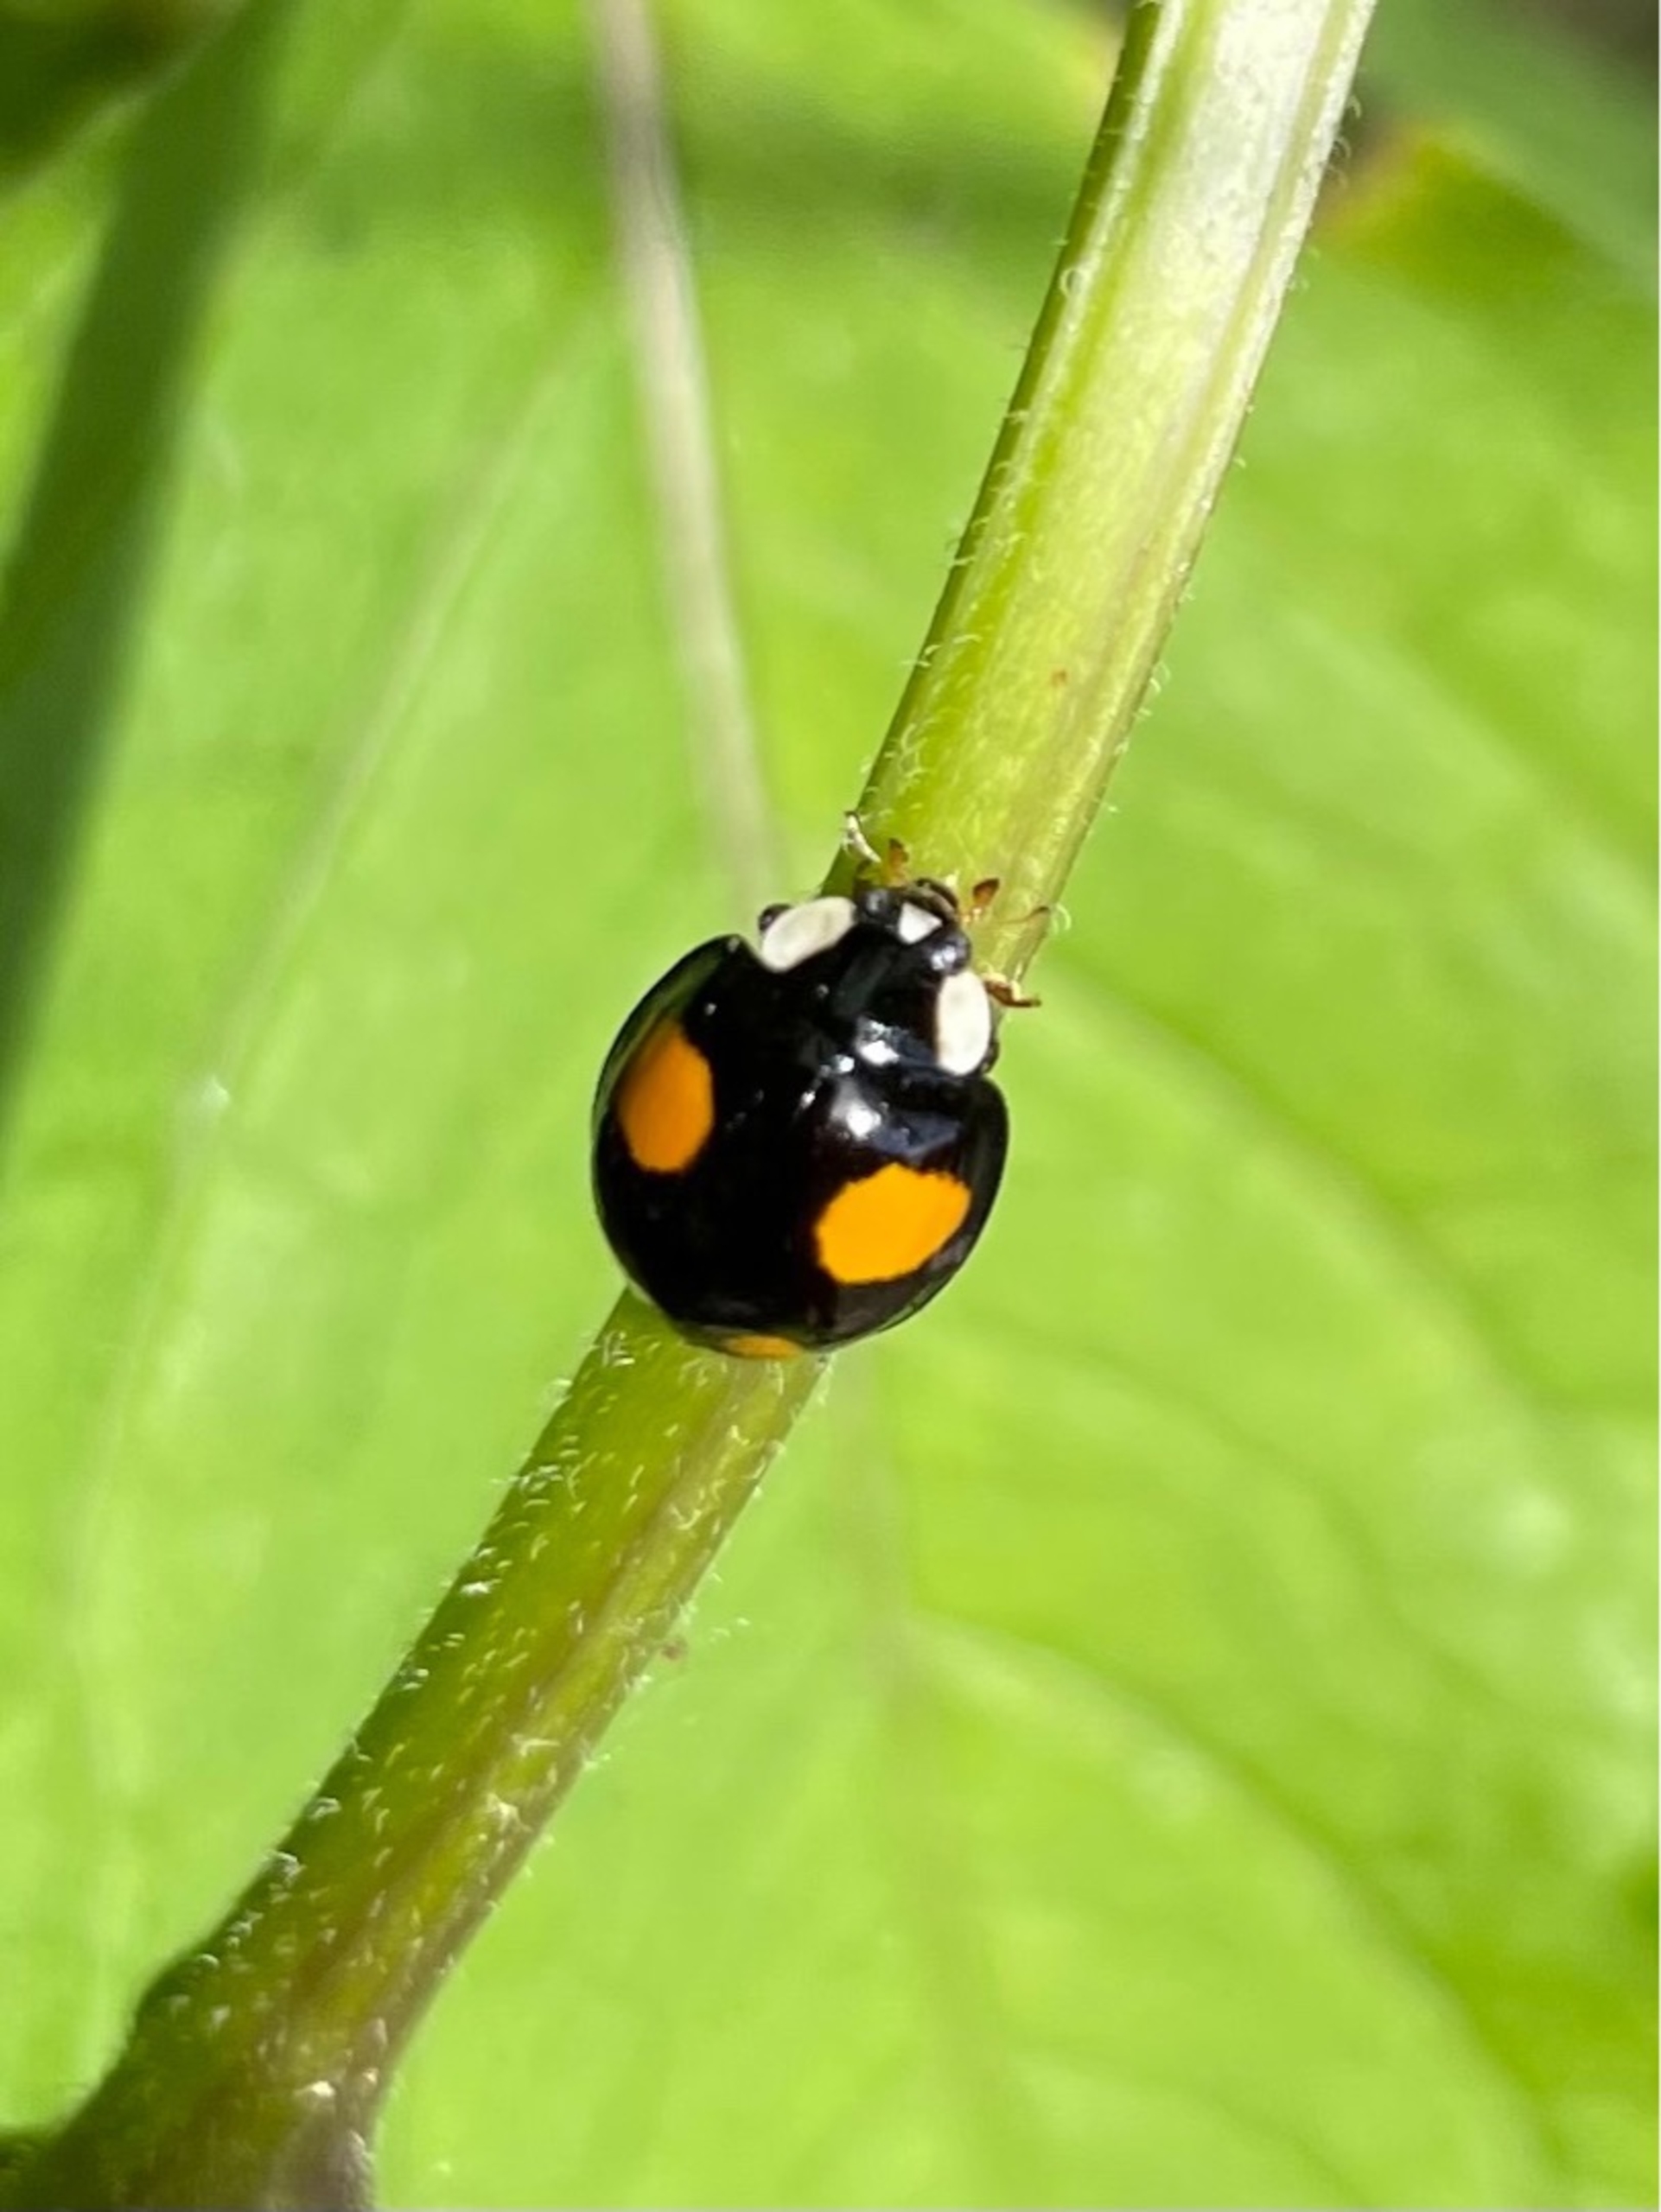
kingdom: Animalia
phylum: Arthropoda
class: Insecta
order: Coleoptera
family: Coccinellidae
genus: Harmonia
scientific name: Harmonia axyridis
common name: Harlekinmariehøne
